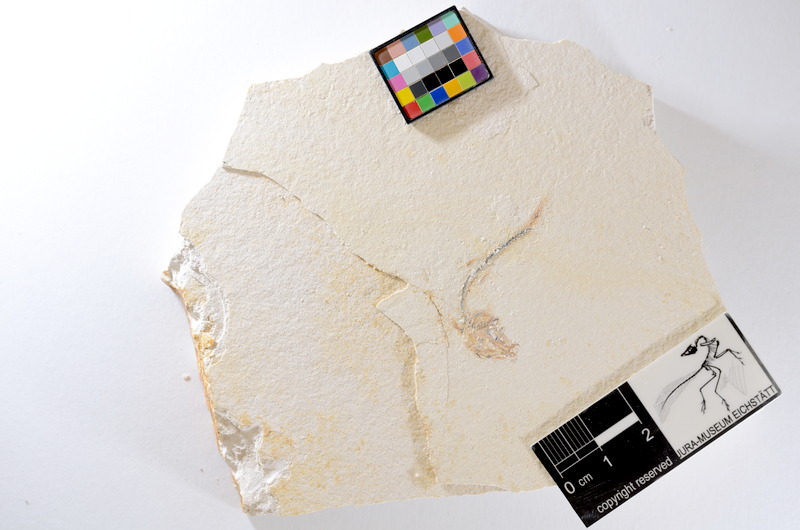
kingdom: Animalia
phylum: Chordata
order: Salmoniformes
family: Orthogonikleithridae
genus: Orthogonikleithrus
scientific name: Orthogonikleithrus hoelli
